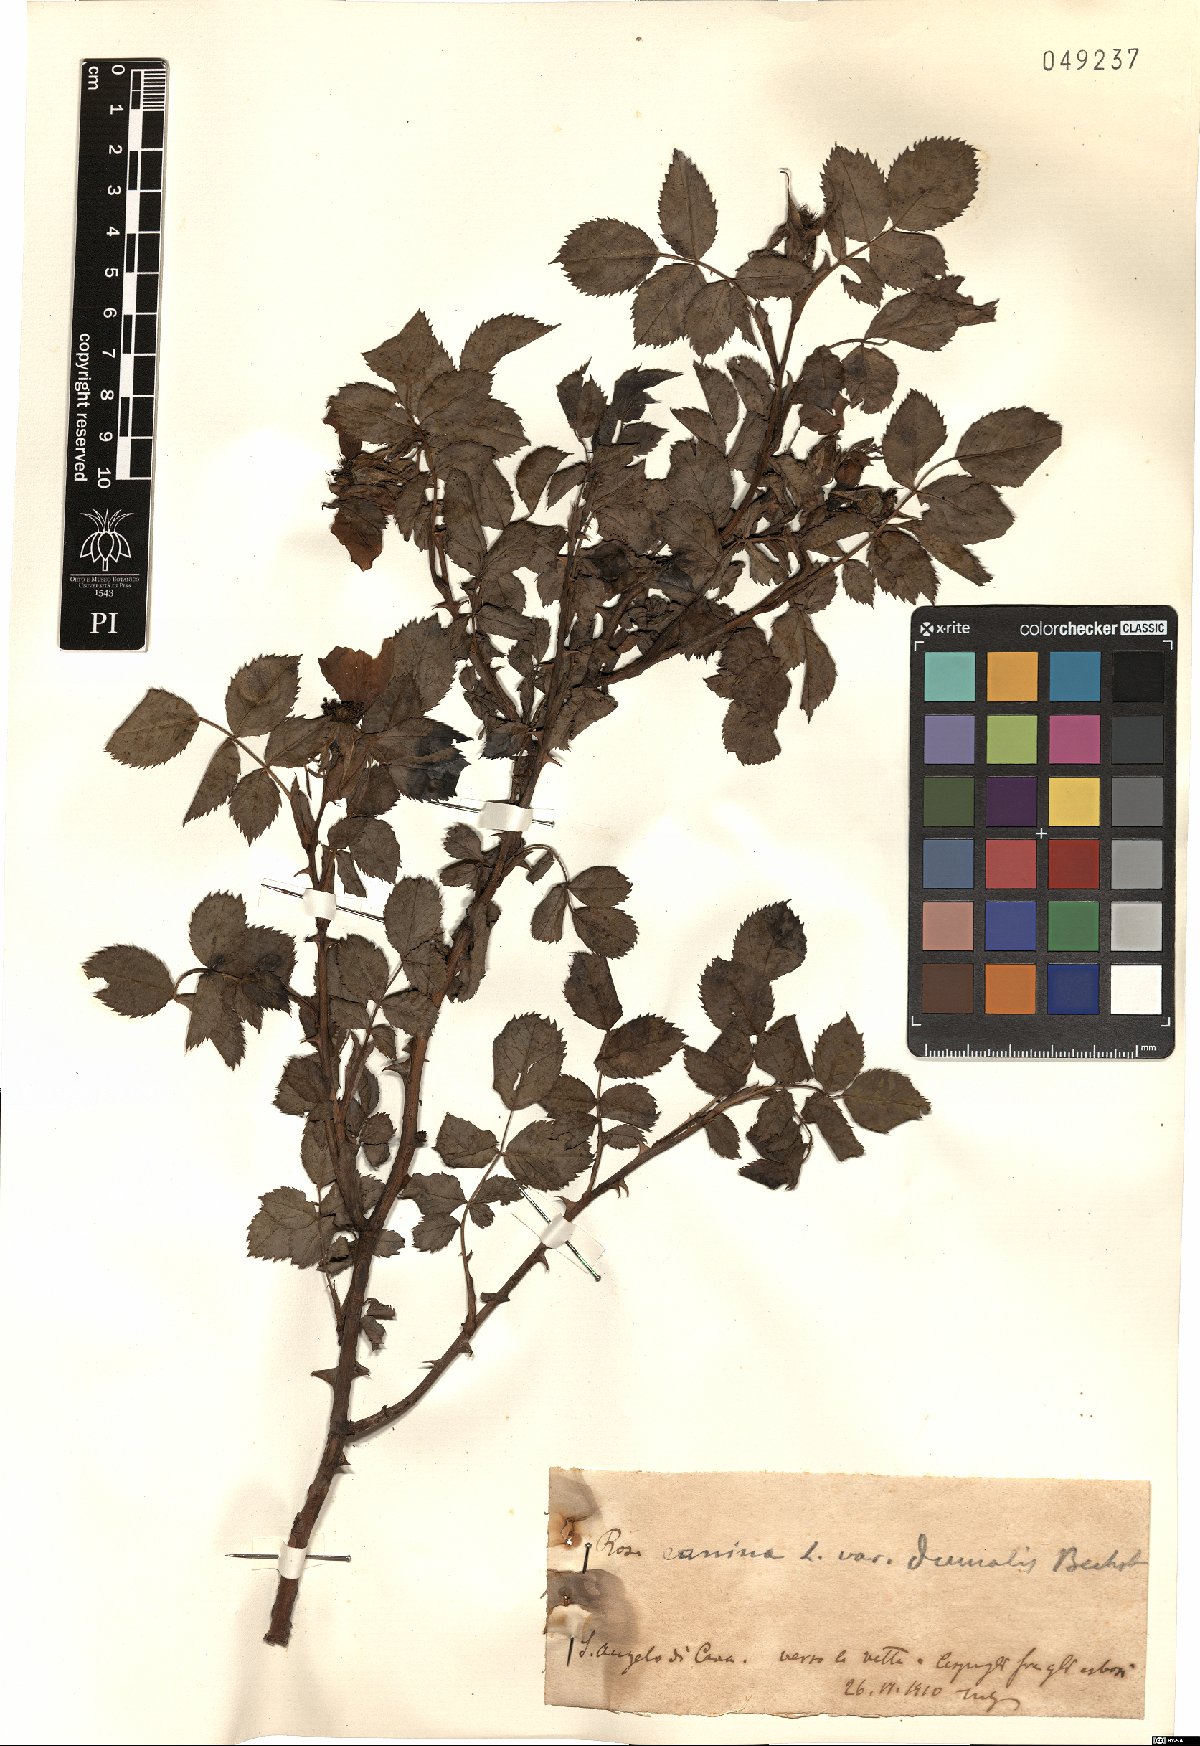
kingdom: Plantae
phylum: Tracheophyta
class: Magnoliopsida
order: Rosales
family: Rosaceae
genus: Rosa
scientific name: Rosa subcanina
